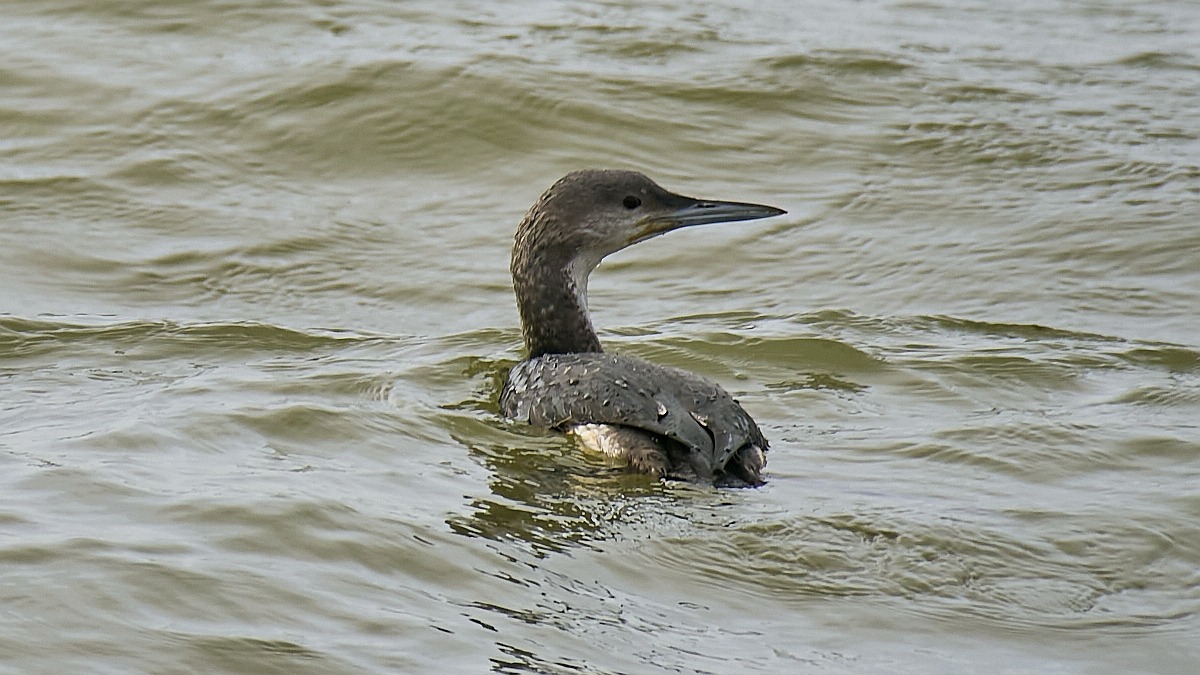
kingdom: Animalia
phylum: Chordata
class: Aves
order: Gaviiformes
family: Gaviidae
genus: Gavia
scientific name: Gavia arctica
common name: Sortstrubet lom
